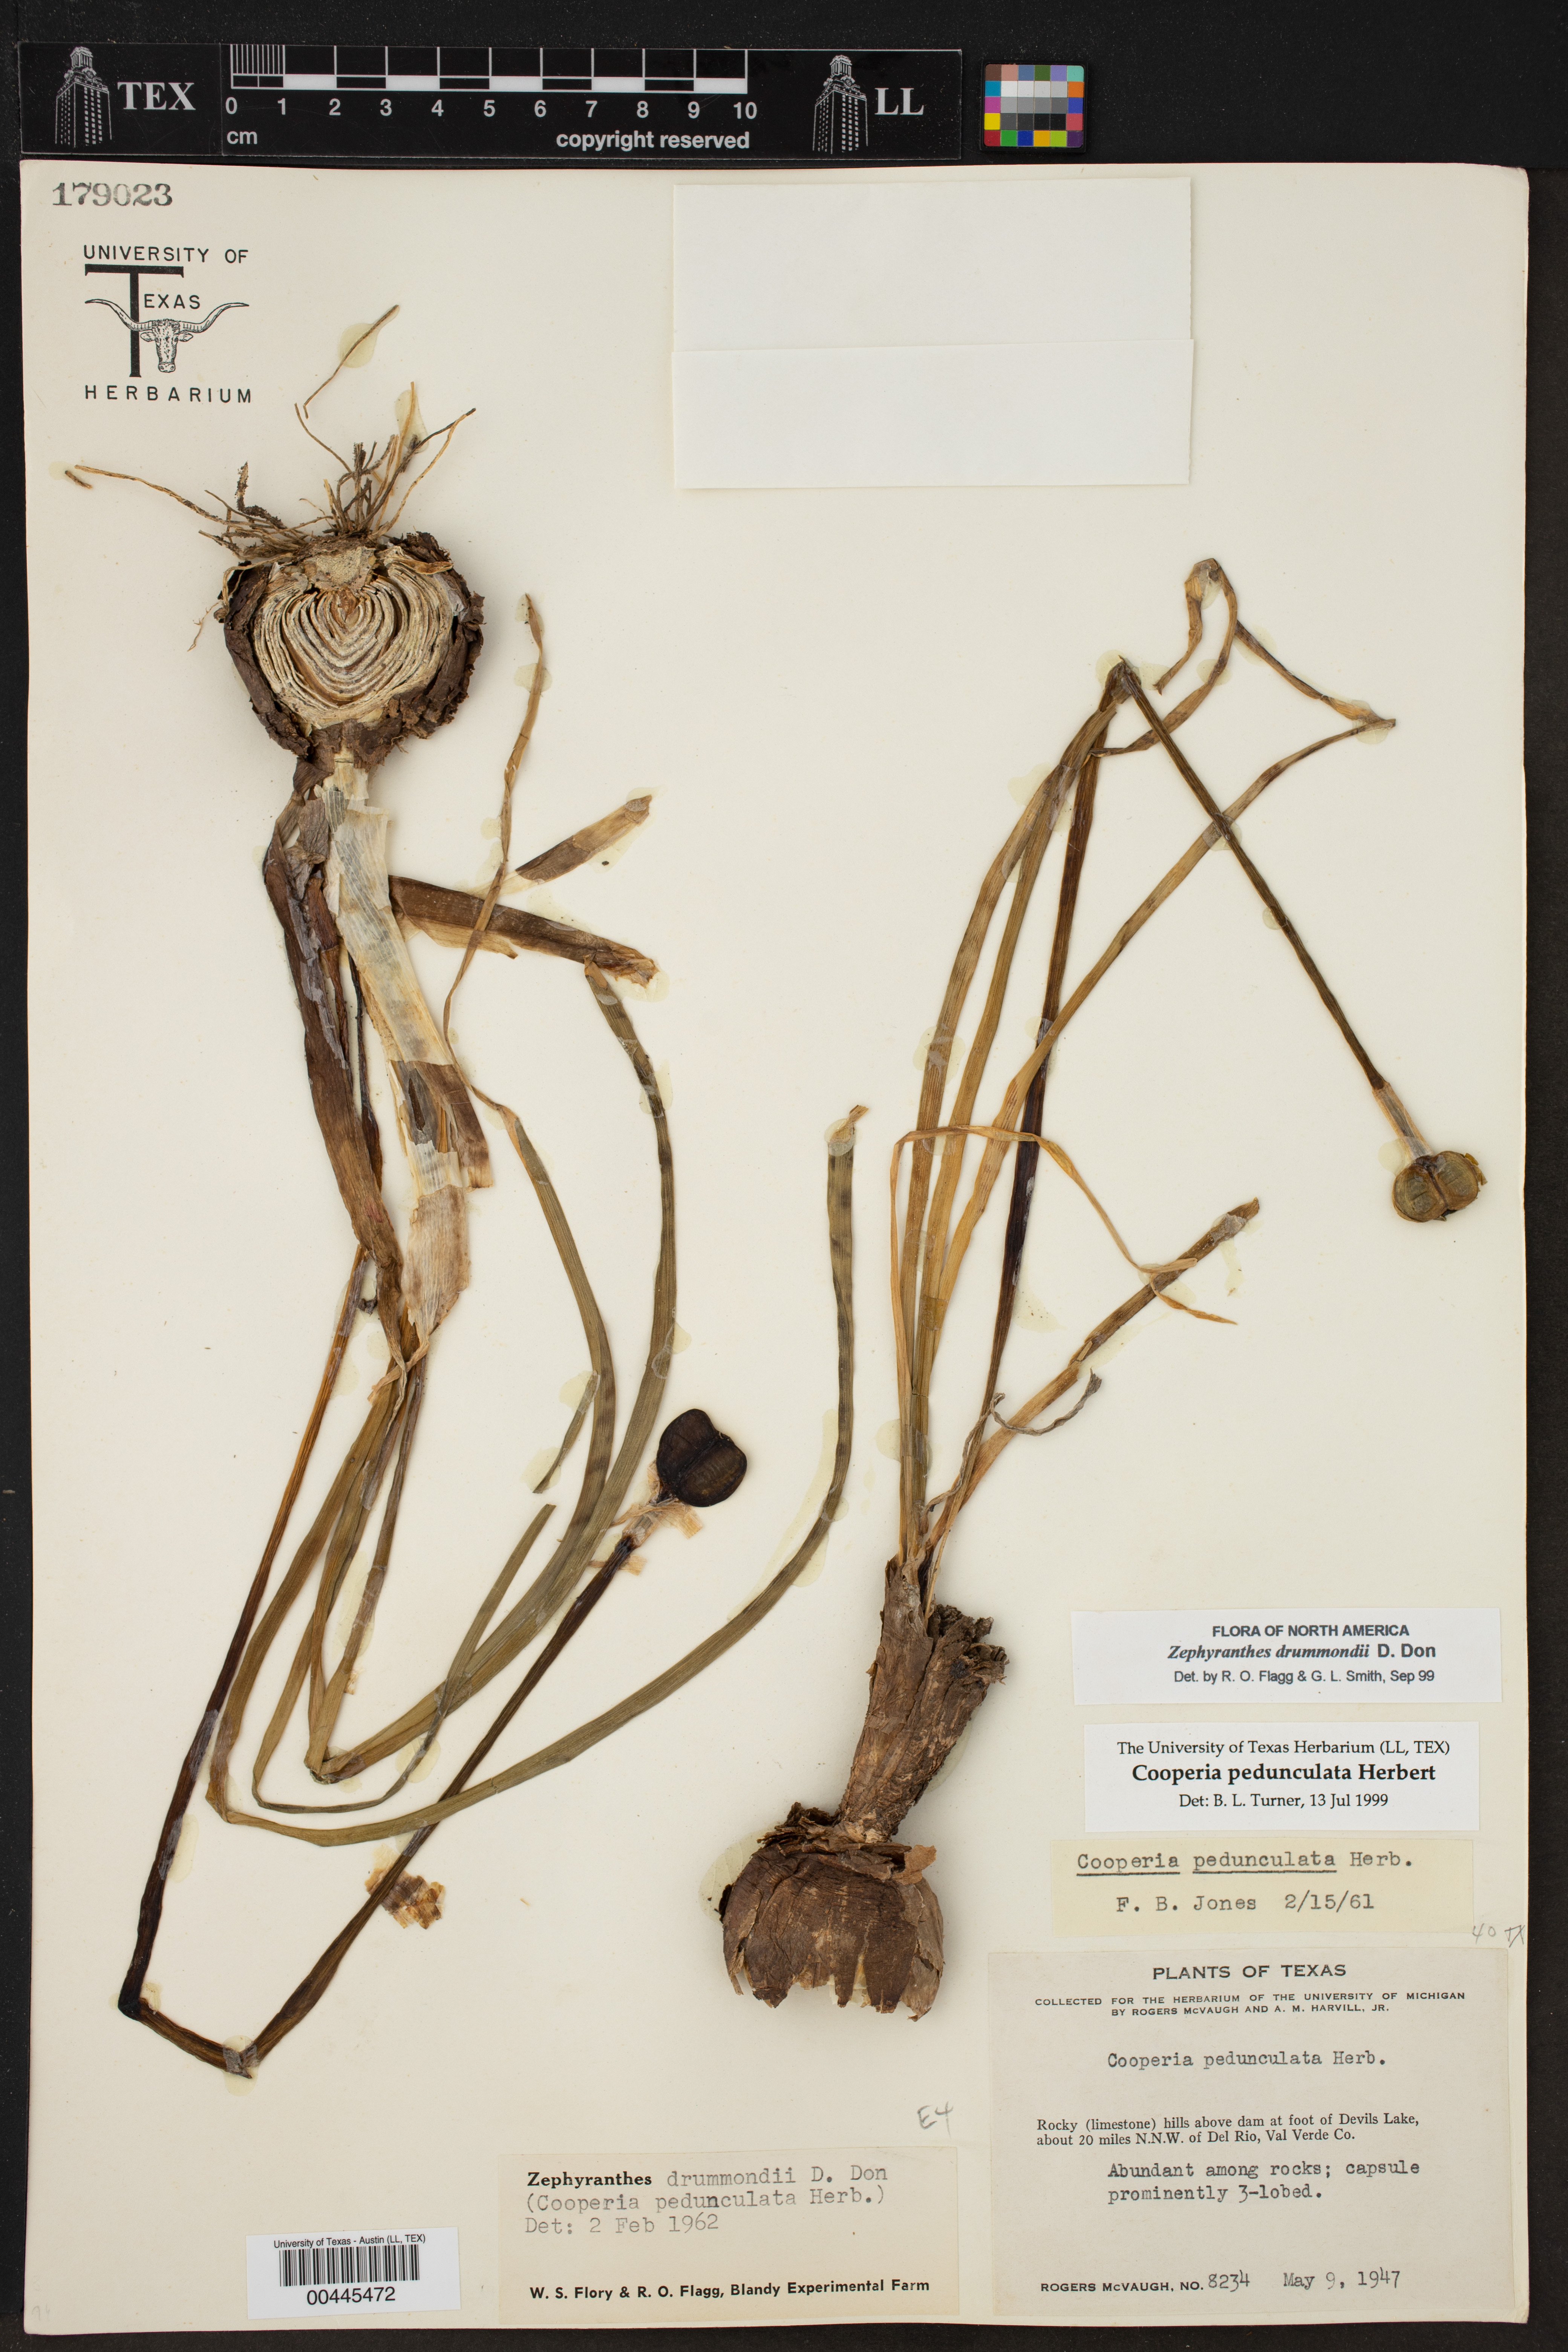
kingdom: Plantae
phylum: Tracheophyta
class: Liliopsida
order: Asparagales
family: Amaryllidaceae
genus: Zephyranthes
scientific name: Zephyranthes drummondii
